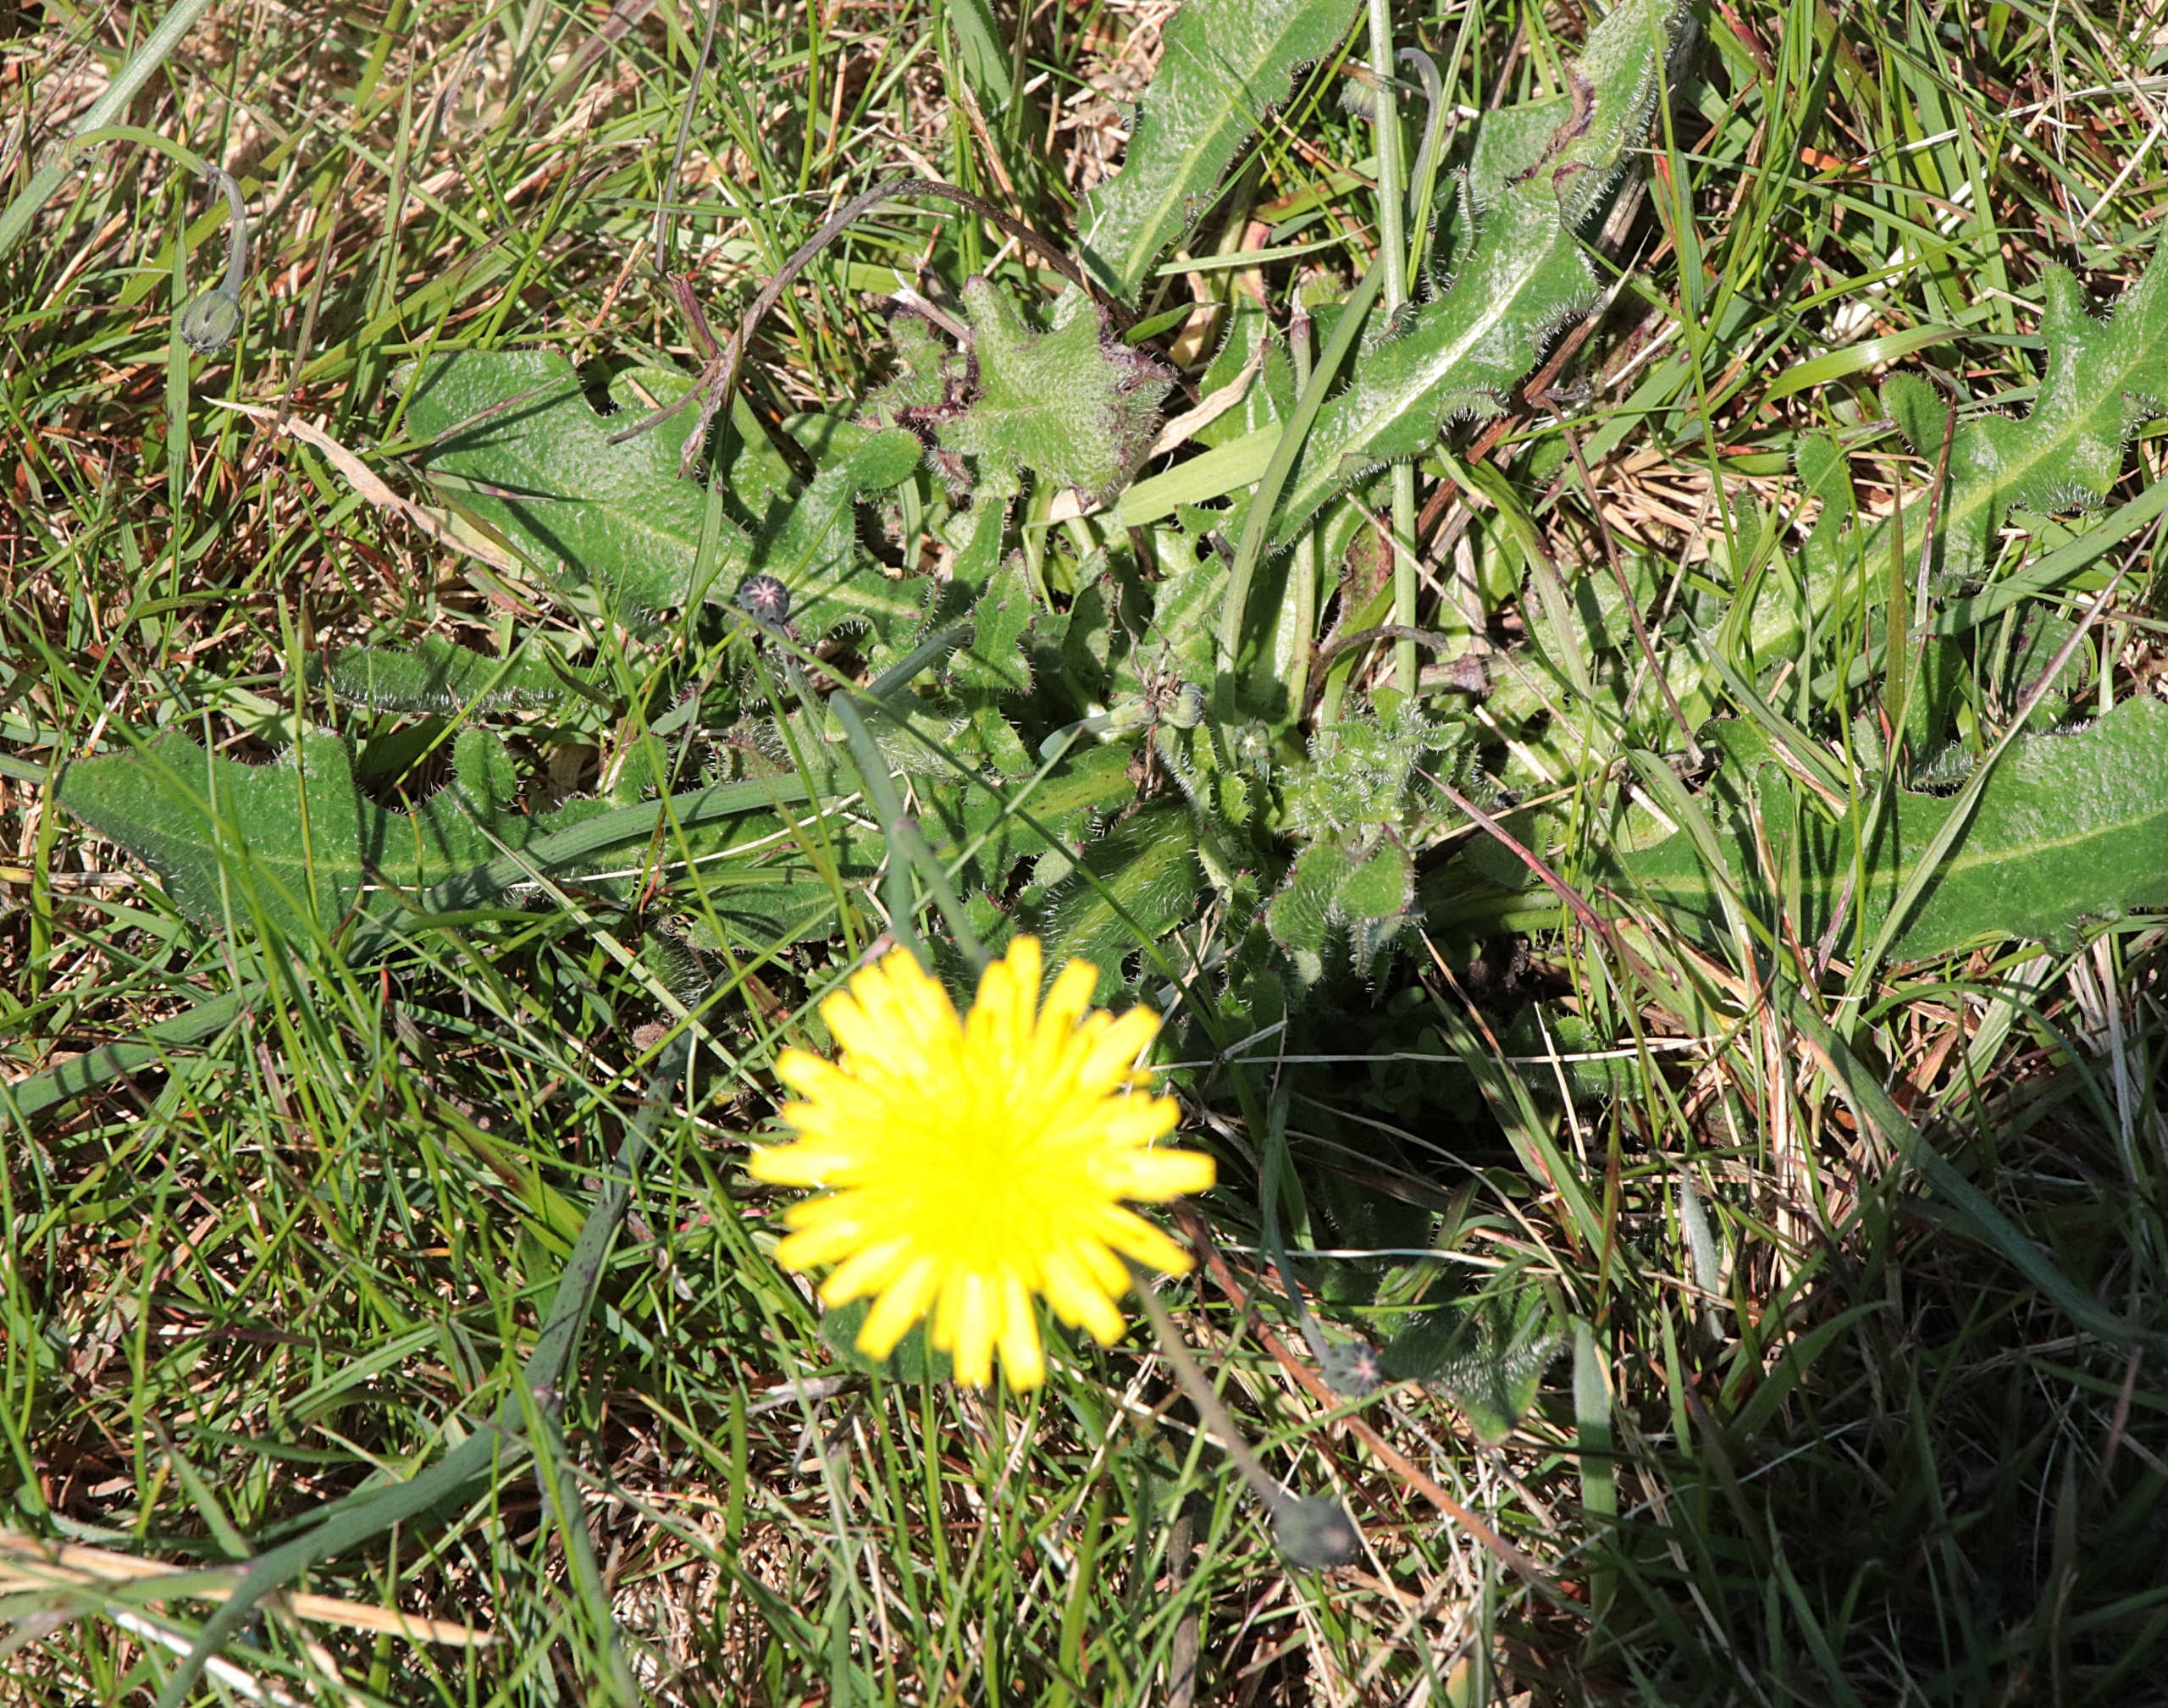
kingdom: Plantae
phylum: Tracheophyta
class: Magnoliopsida
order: Asterales
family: Asteraceae
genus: Hypochaeris
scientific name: Hypochaeris radicata
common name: Almindelig kongepen
